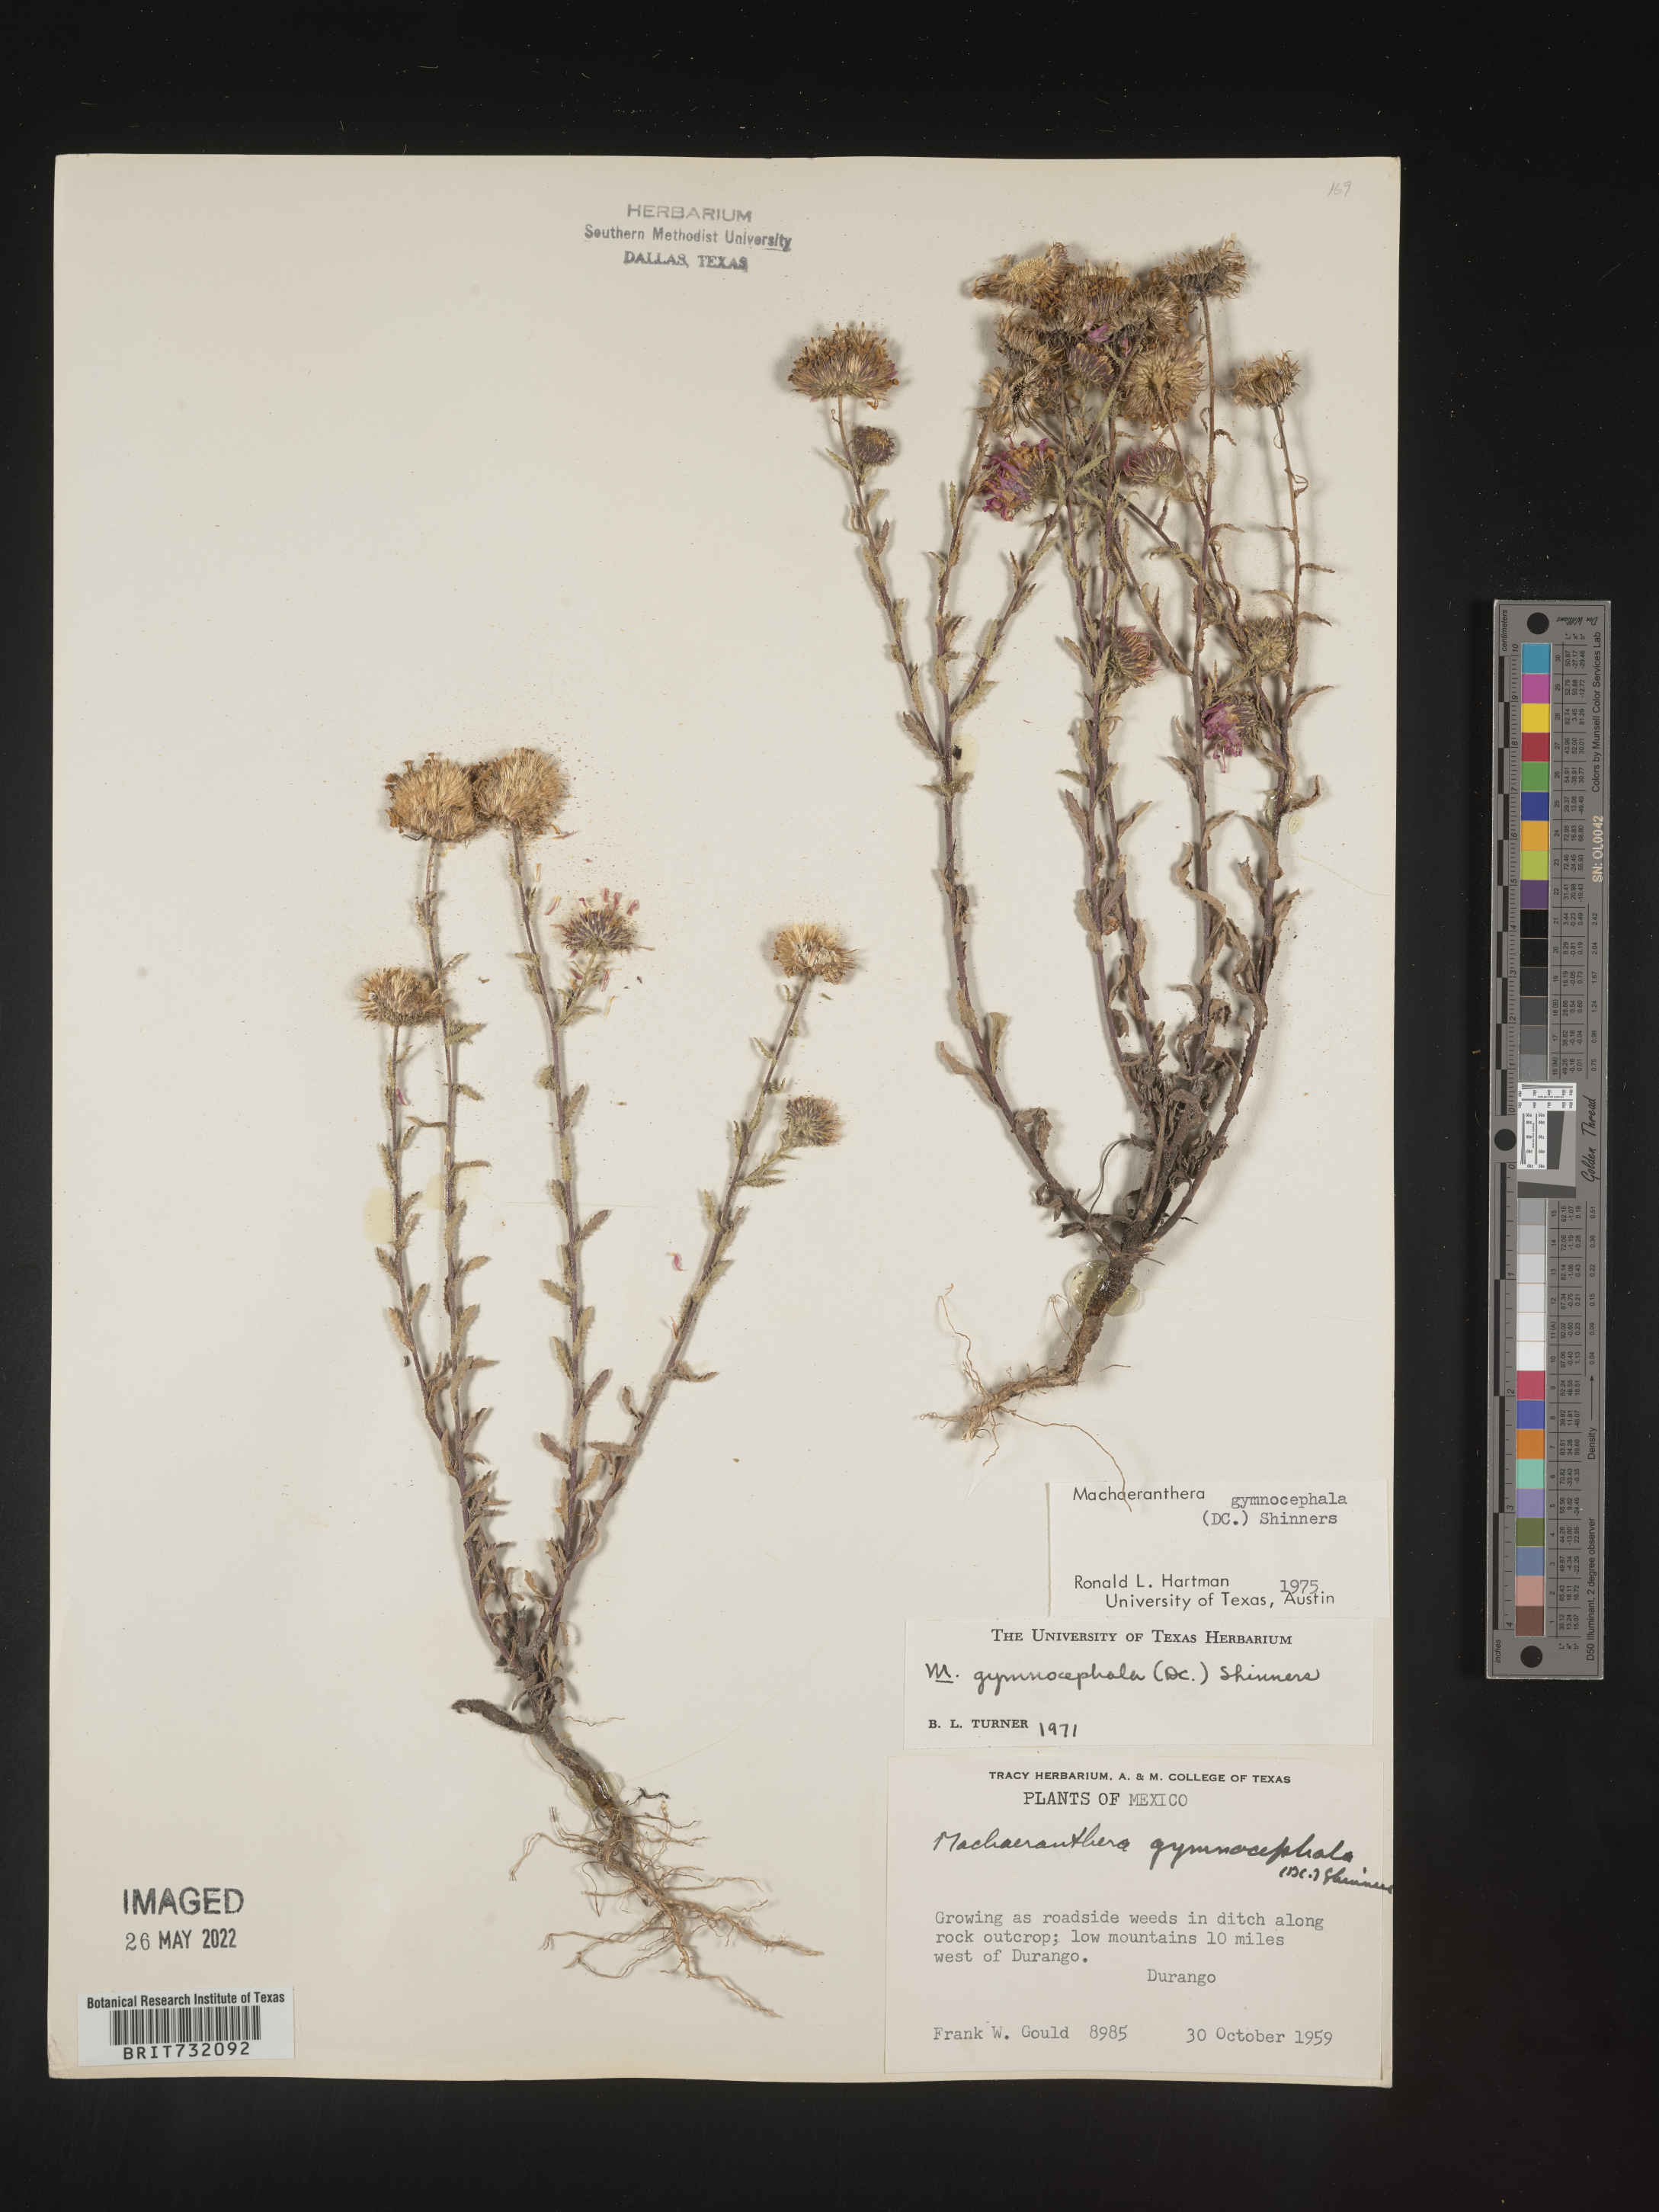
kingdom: Plantae
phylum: Tracheophyta
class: Magnoliopsida
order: Asterales
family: Asteraceae
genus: Xanthisma
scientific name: Xanthisma blephariphyllum
